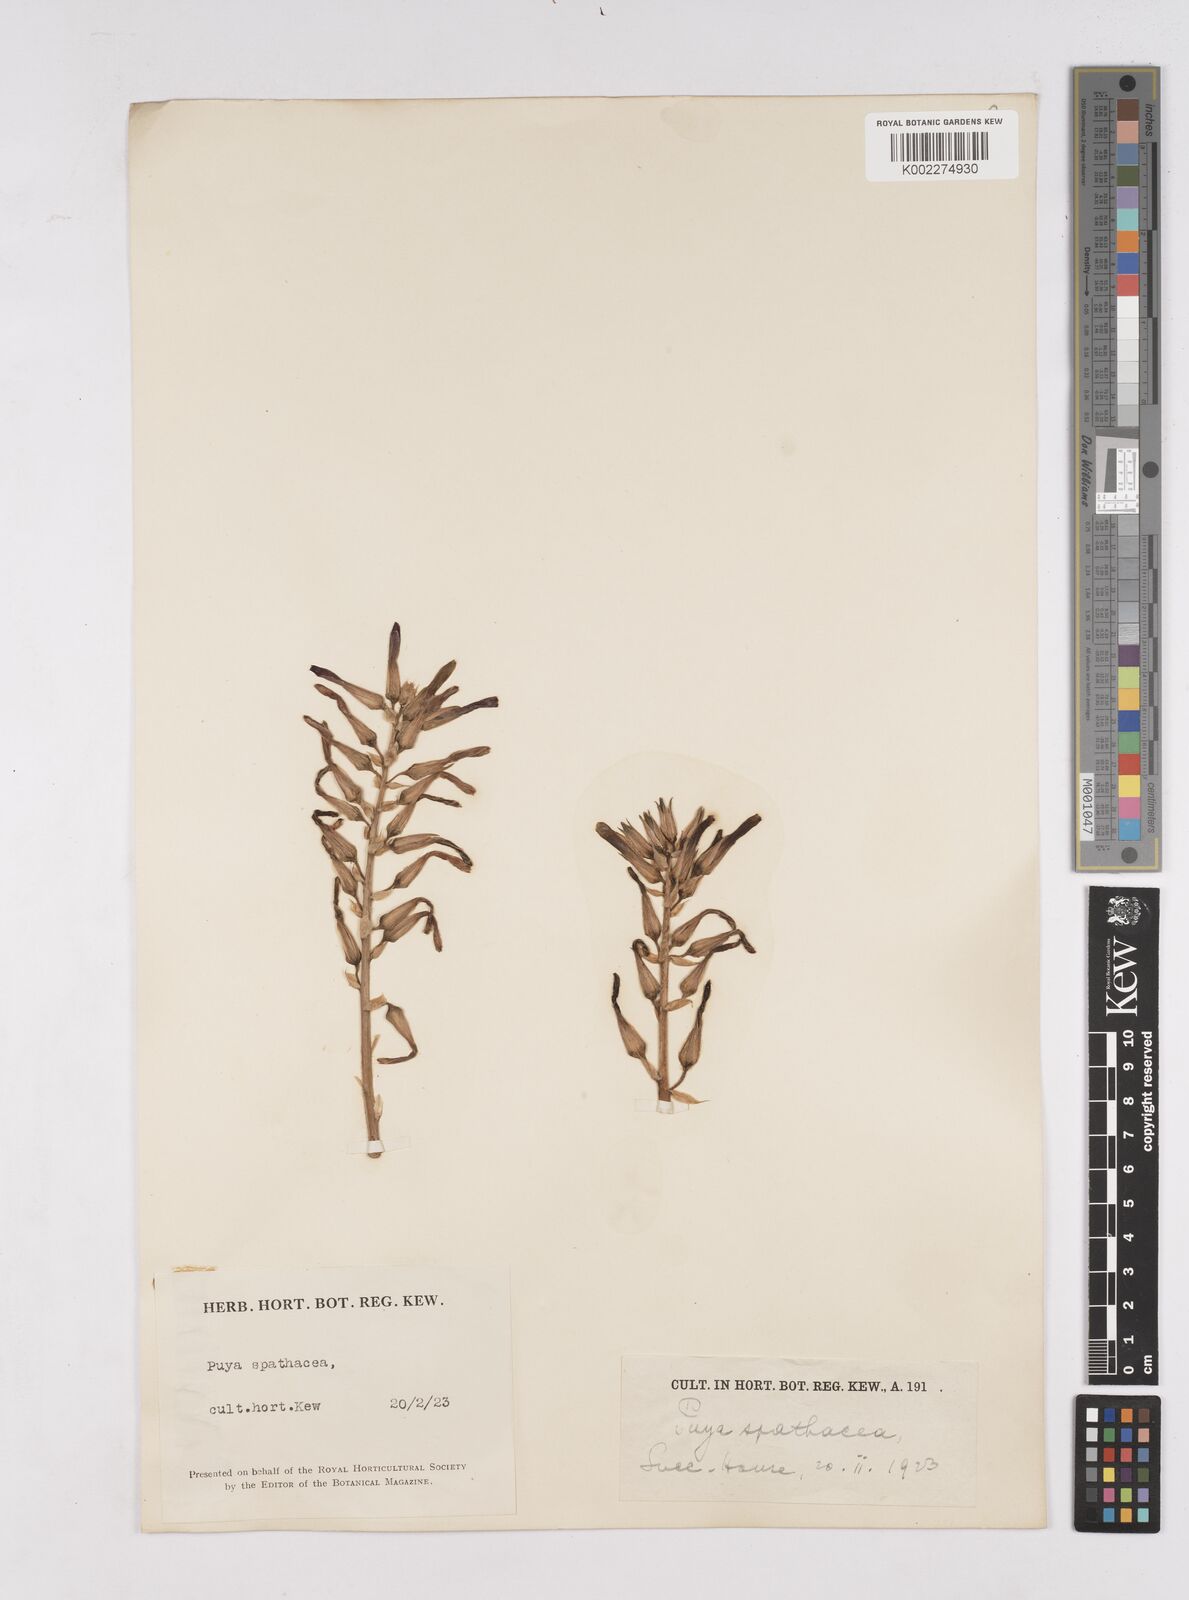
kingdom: Plantae
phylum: Tracheophyta
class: Liliopsida
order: Poales
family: Bromeliaceae
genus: Puya
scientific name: Puya spathacea
